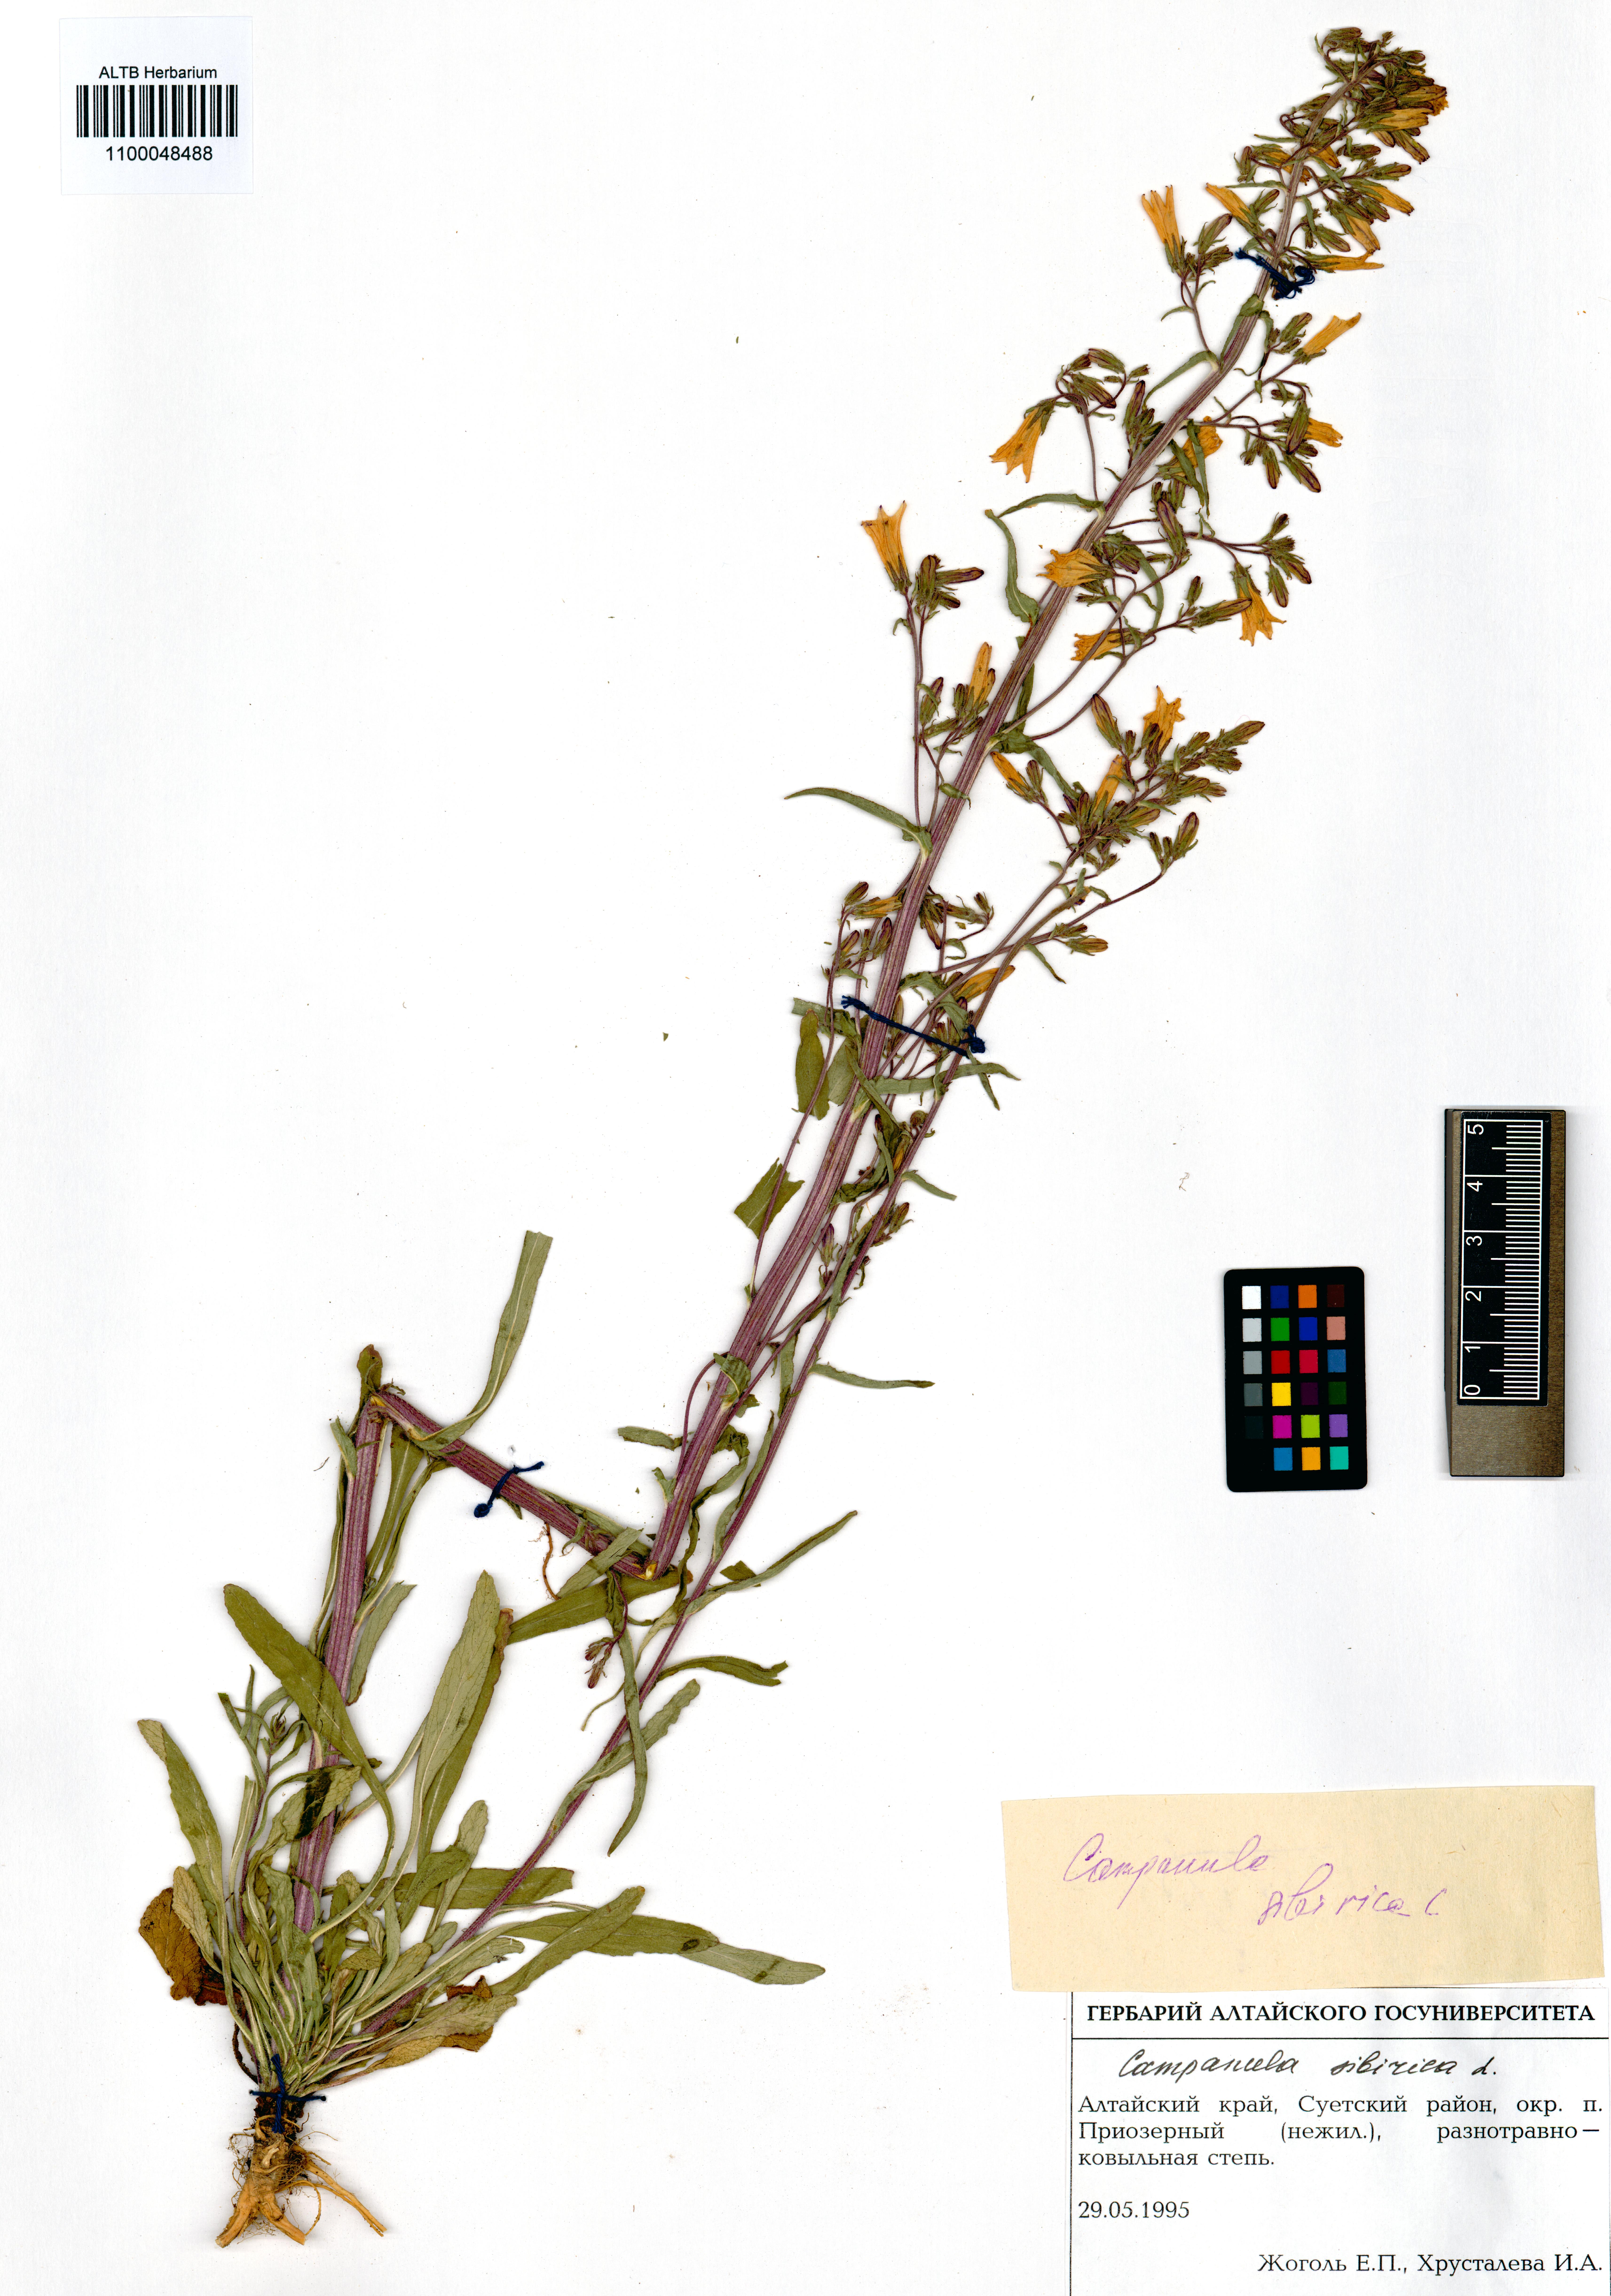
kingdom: Plantae
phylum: Tracheophyta
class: Magnoliopsida
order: Asterales
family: Campanulaceae
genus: Campanula
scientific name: Campanula sibirica
